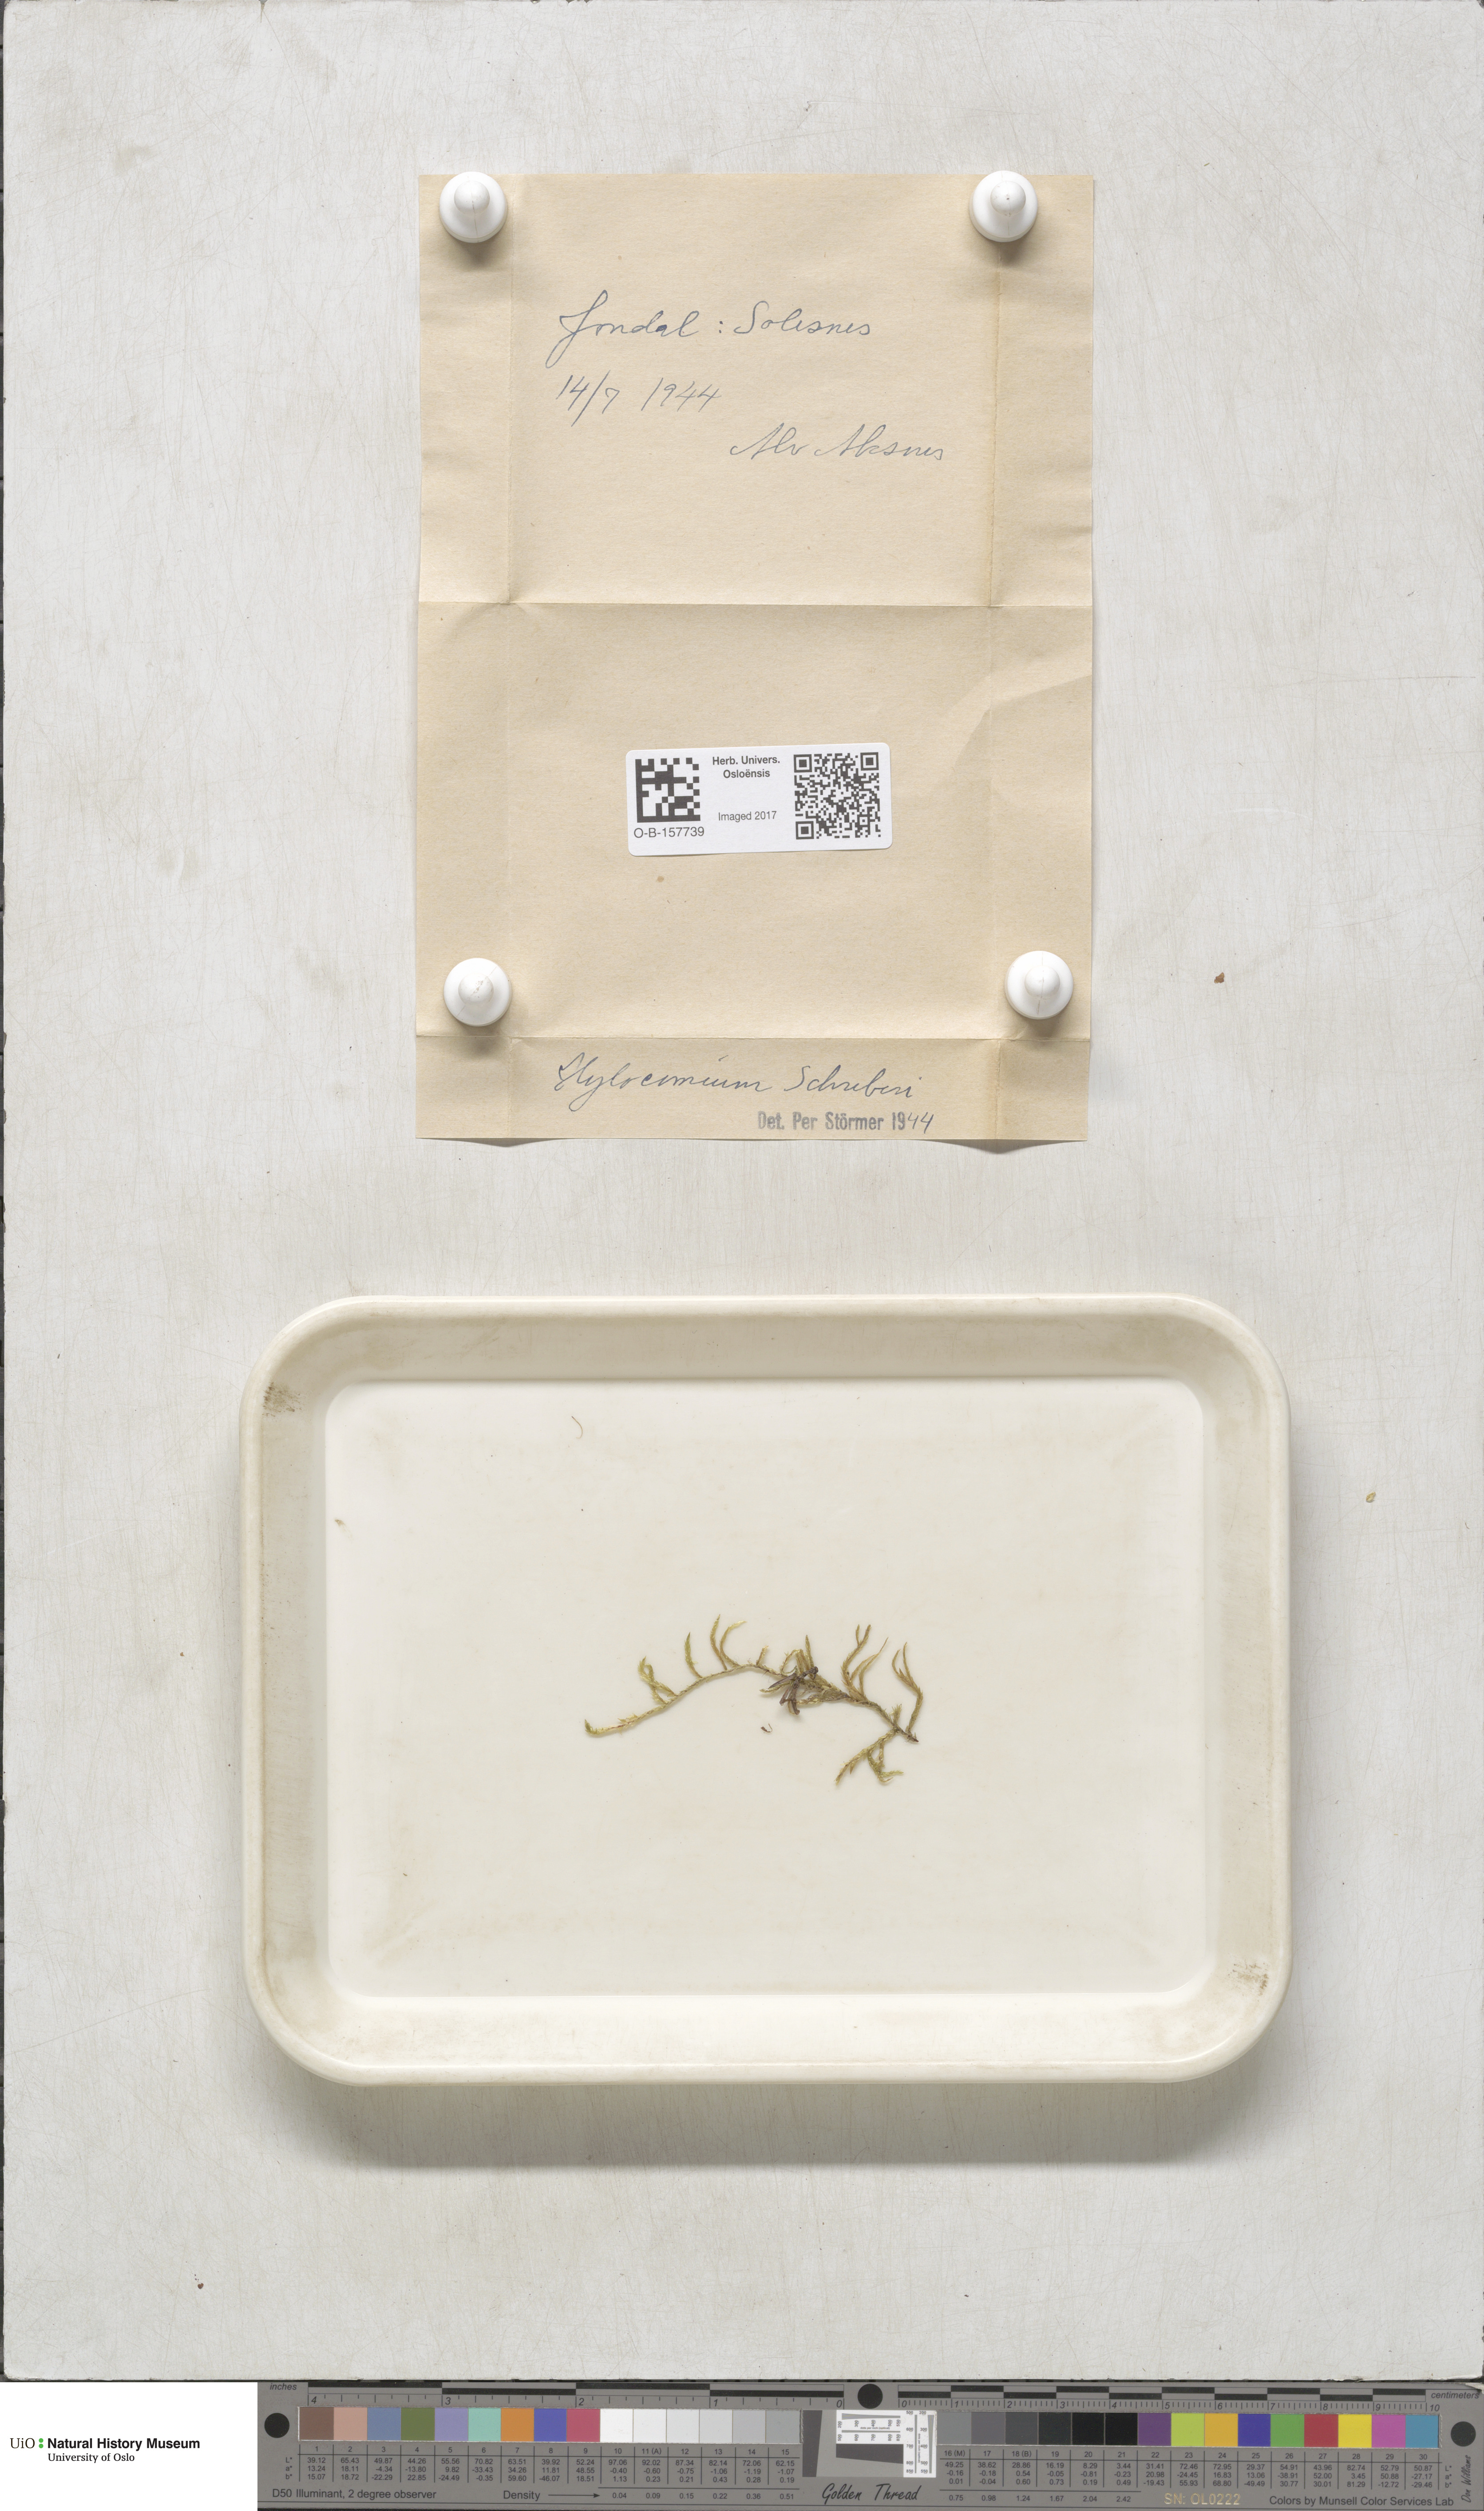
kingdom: Plantae
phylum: Bryophyta
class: Bryopsida
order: Hypnales
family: Hylocomiaceae
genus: Pleurozium
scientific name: Pleurozium schreberi
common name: Red-stemmed feather moss
